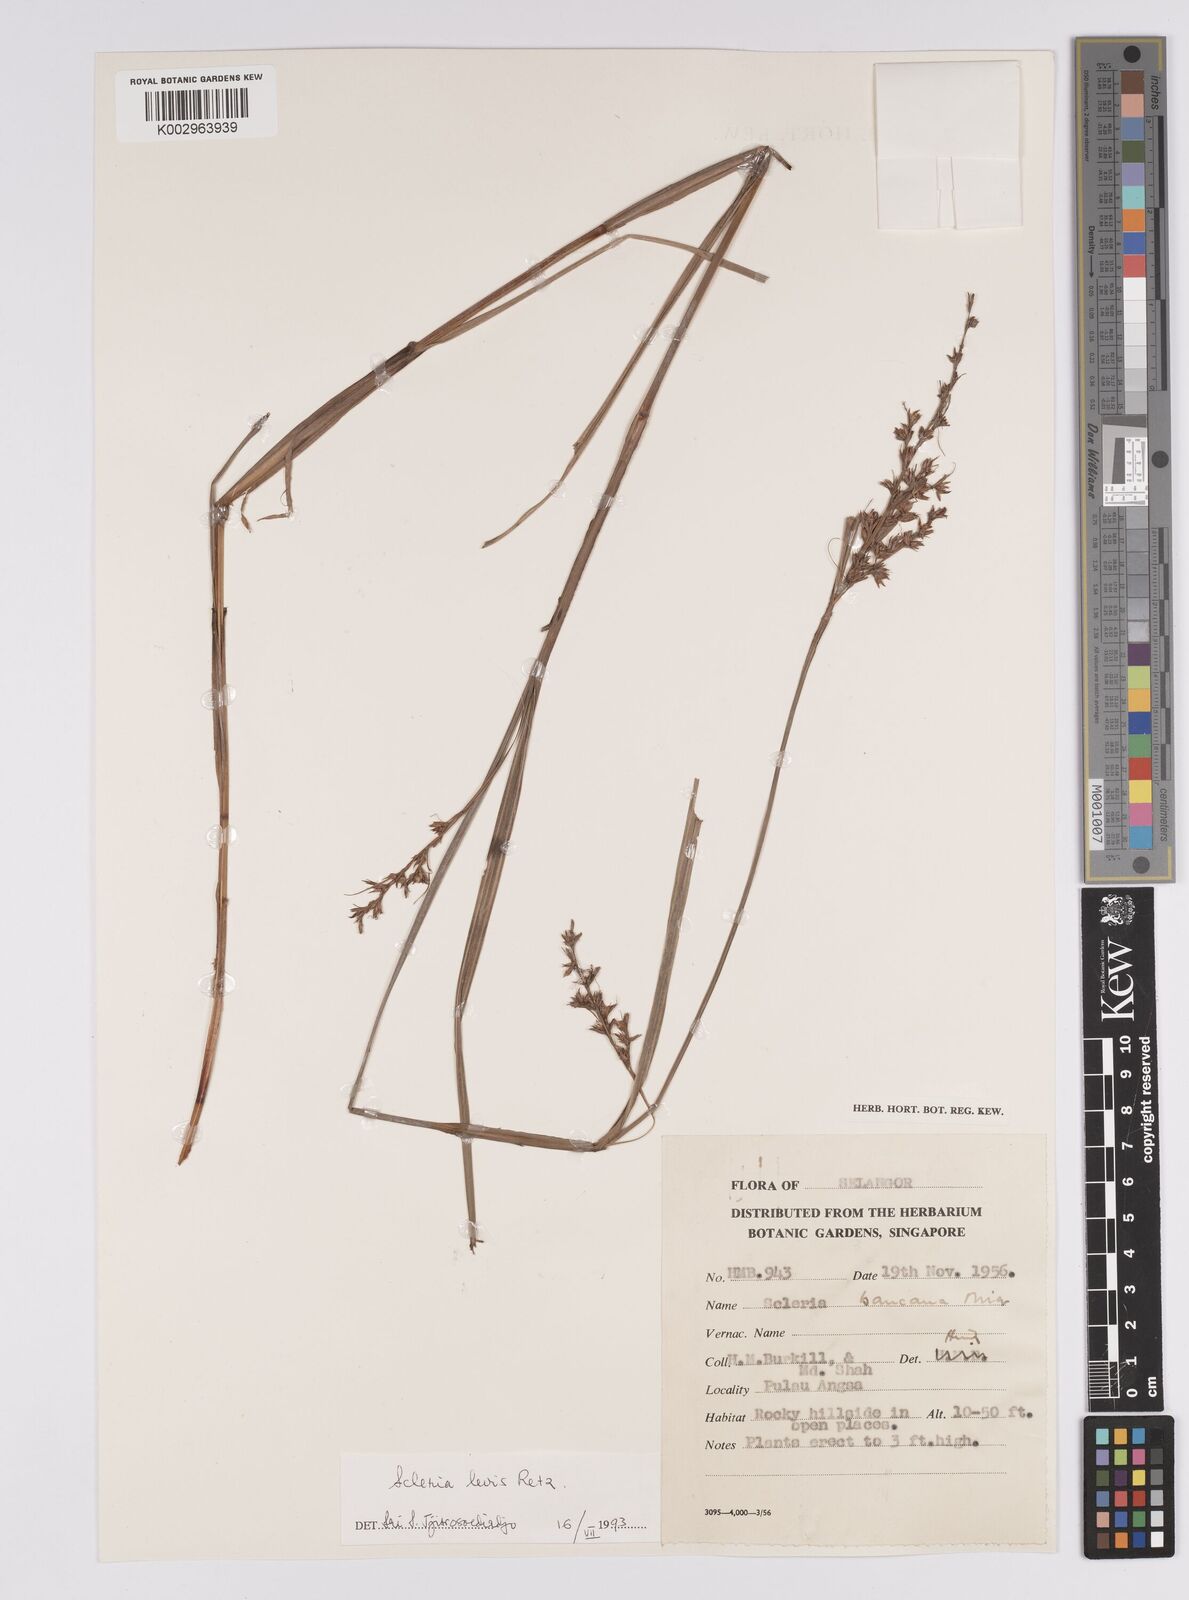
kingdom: Plantae
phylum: Tracheophyta
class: Liliopsida
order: Poales
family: Cyperaceae
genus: Scleria
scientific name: Scleria levis
